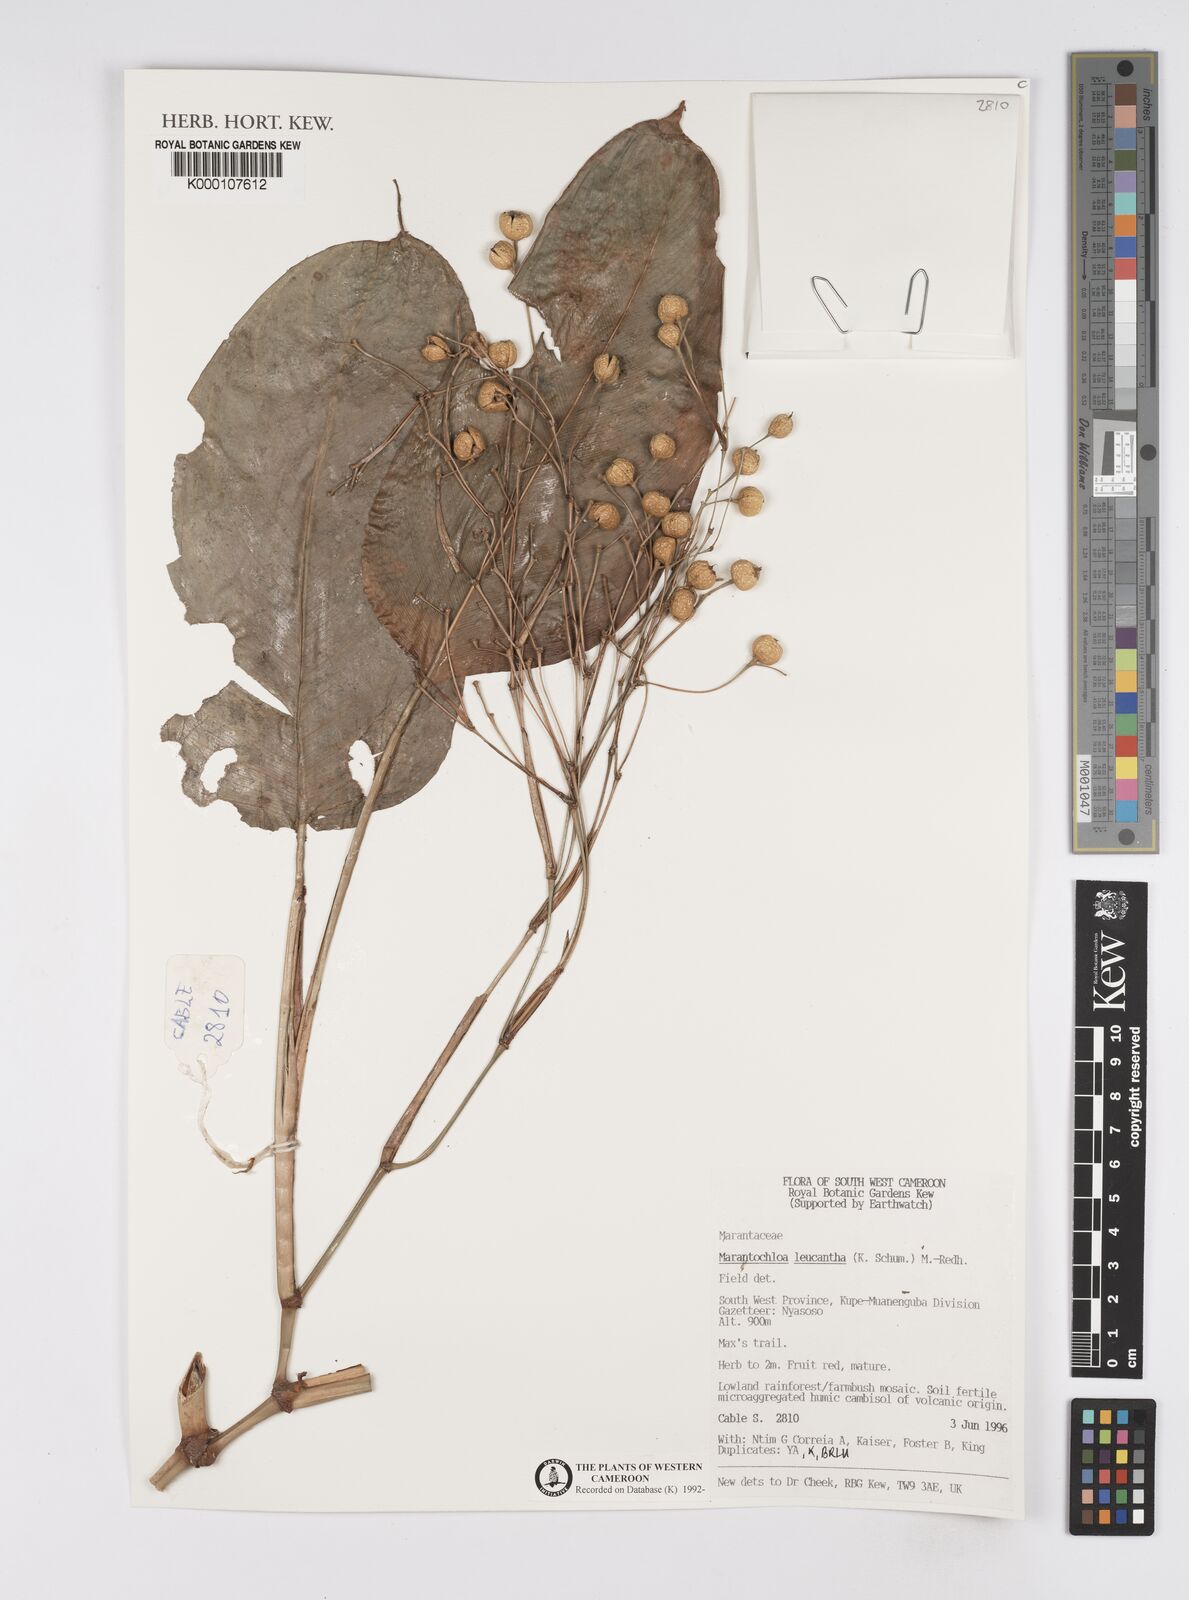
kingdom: Plantae
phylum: Tracheophyta
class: Liliopsida
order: Zingiberales
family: Marantaceae
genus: Marantochloa
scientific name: Marantochloa leucantha
